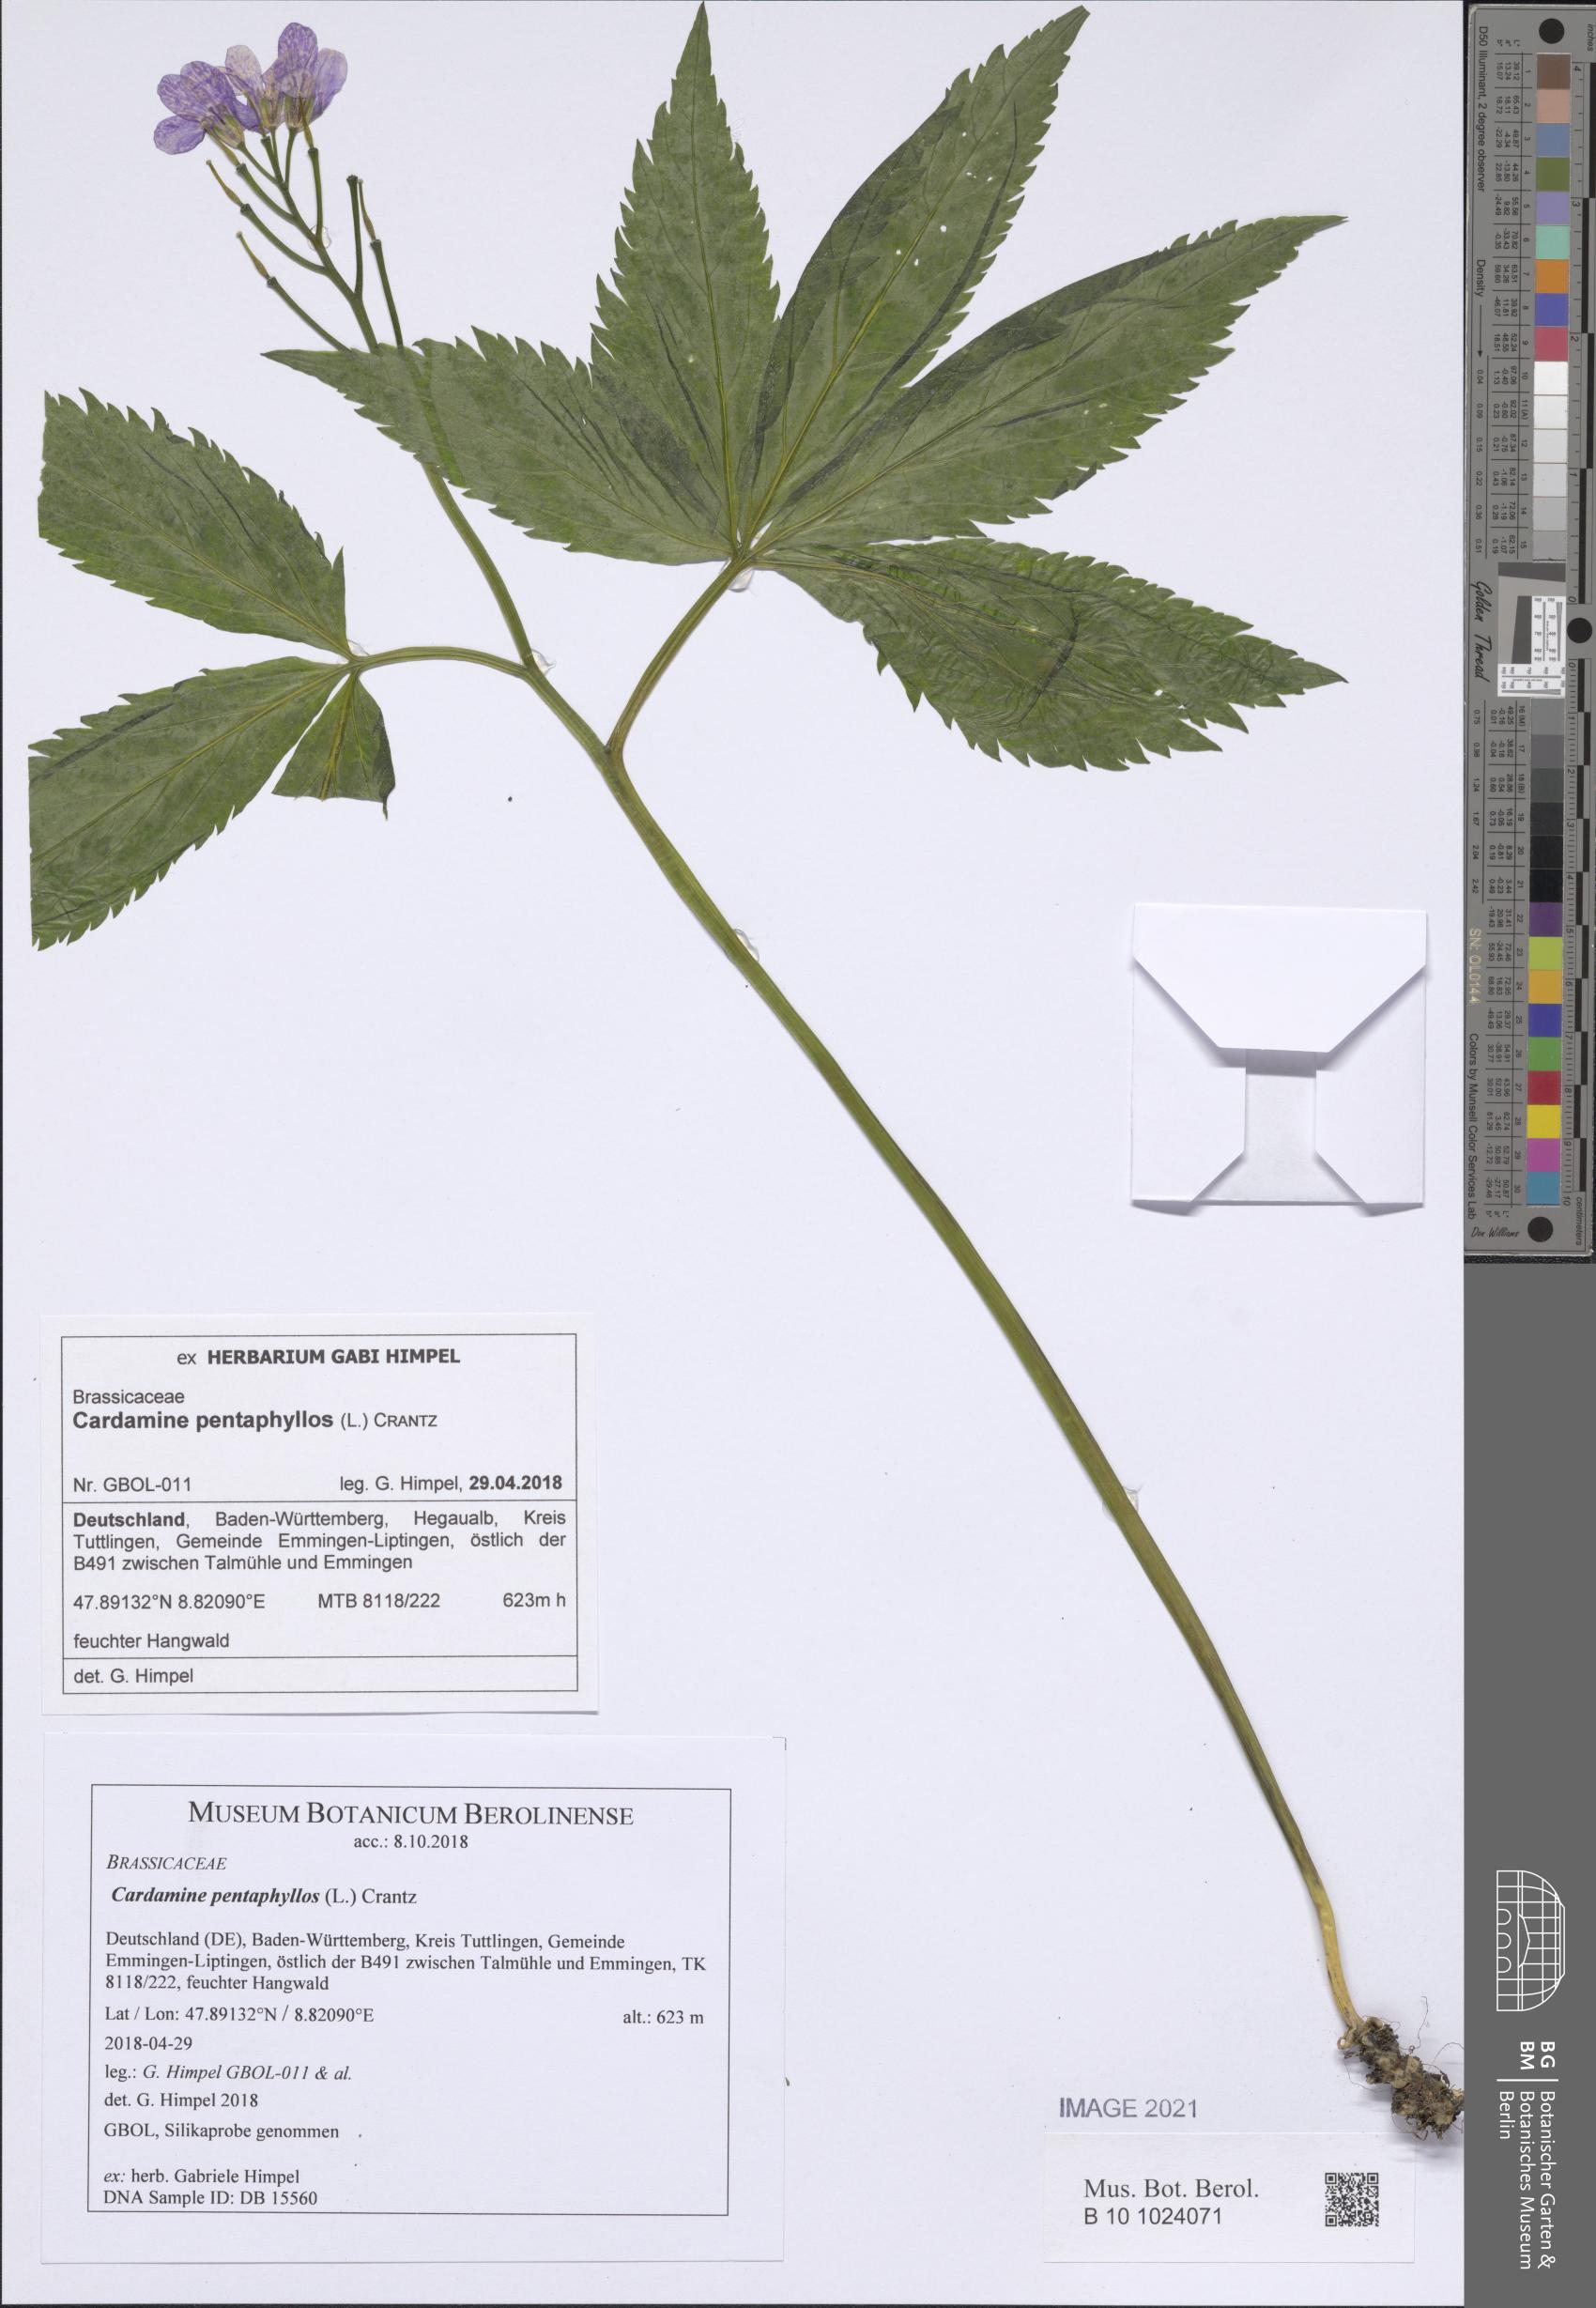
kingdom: Plantae
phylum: Tracheophyta
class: Magnoliopsida
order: Brassicales
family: Brassicaceae
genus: Cardamine
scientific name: Cardamine pentaphyllos
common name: Five-leaflet bitter-cress
